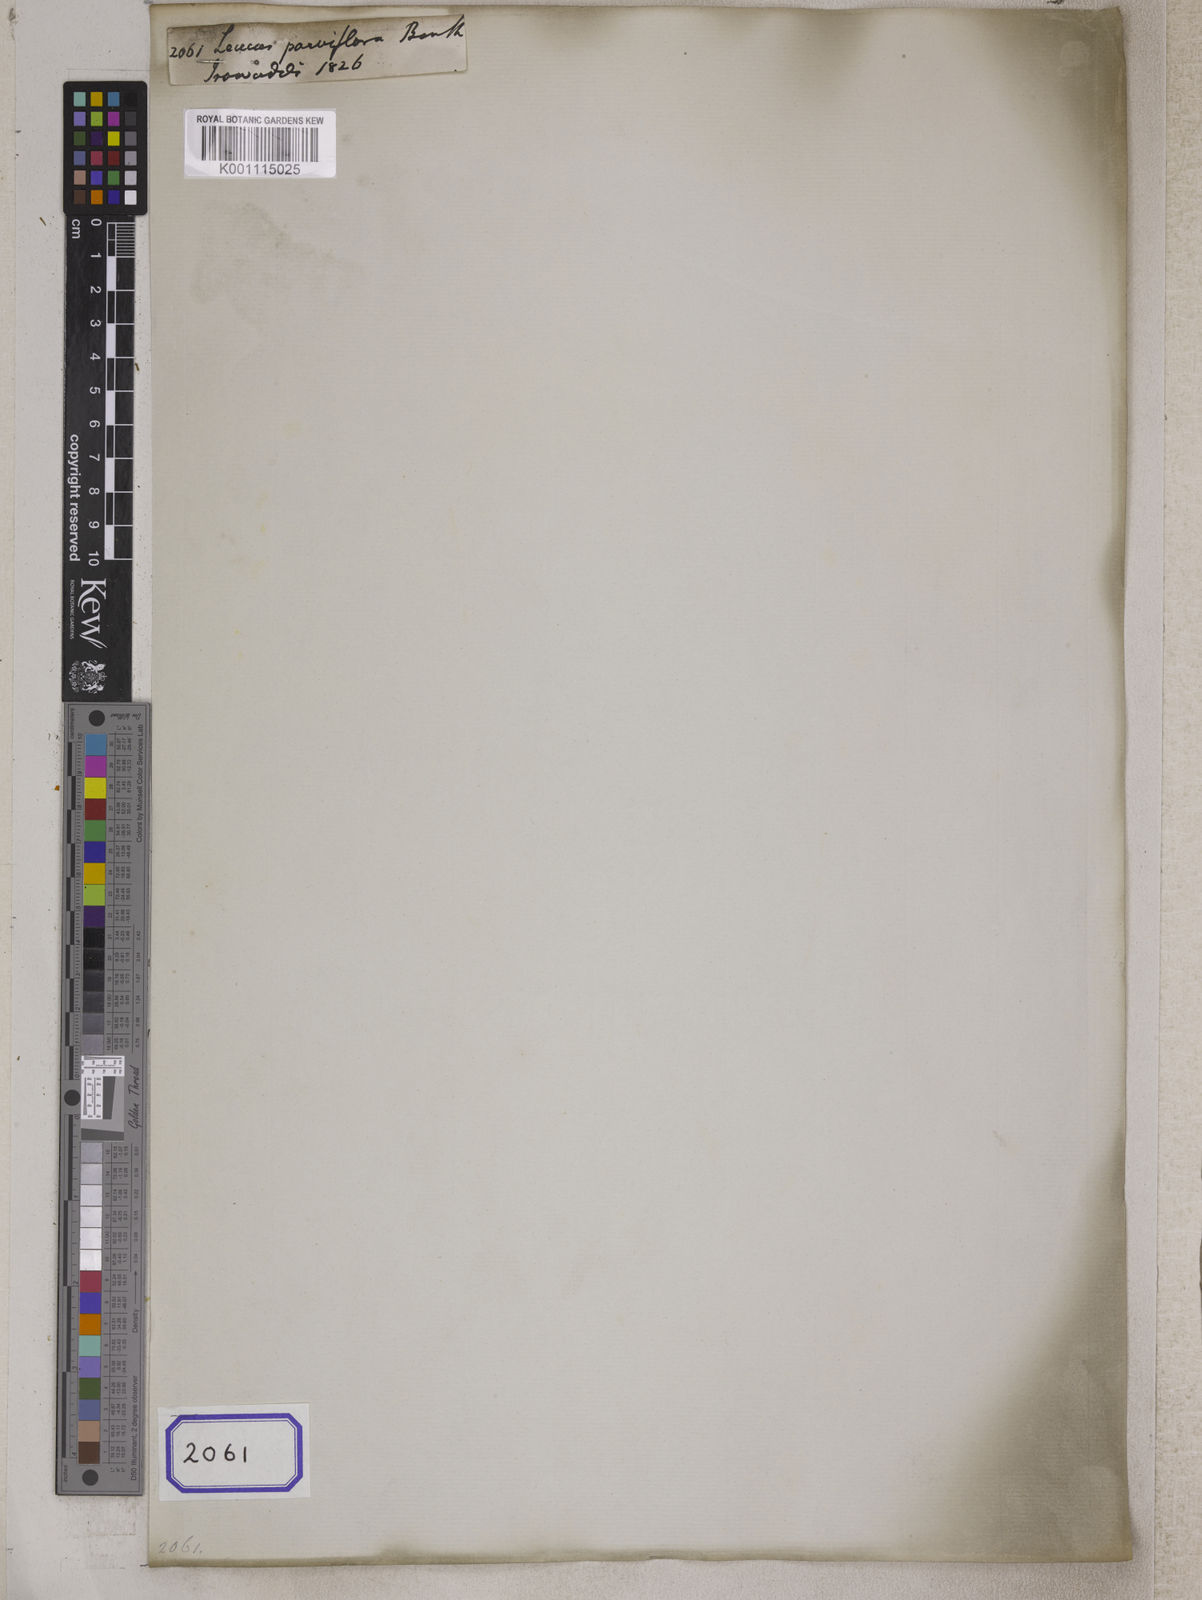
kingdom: Plantae
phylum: Tracheophyta
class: Magnoliopsida
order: Lamiales
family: Lamiaceae
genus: Leucas
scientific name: Leucas decemdentata
